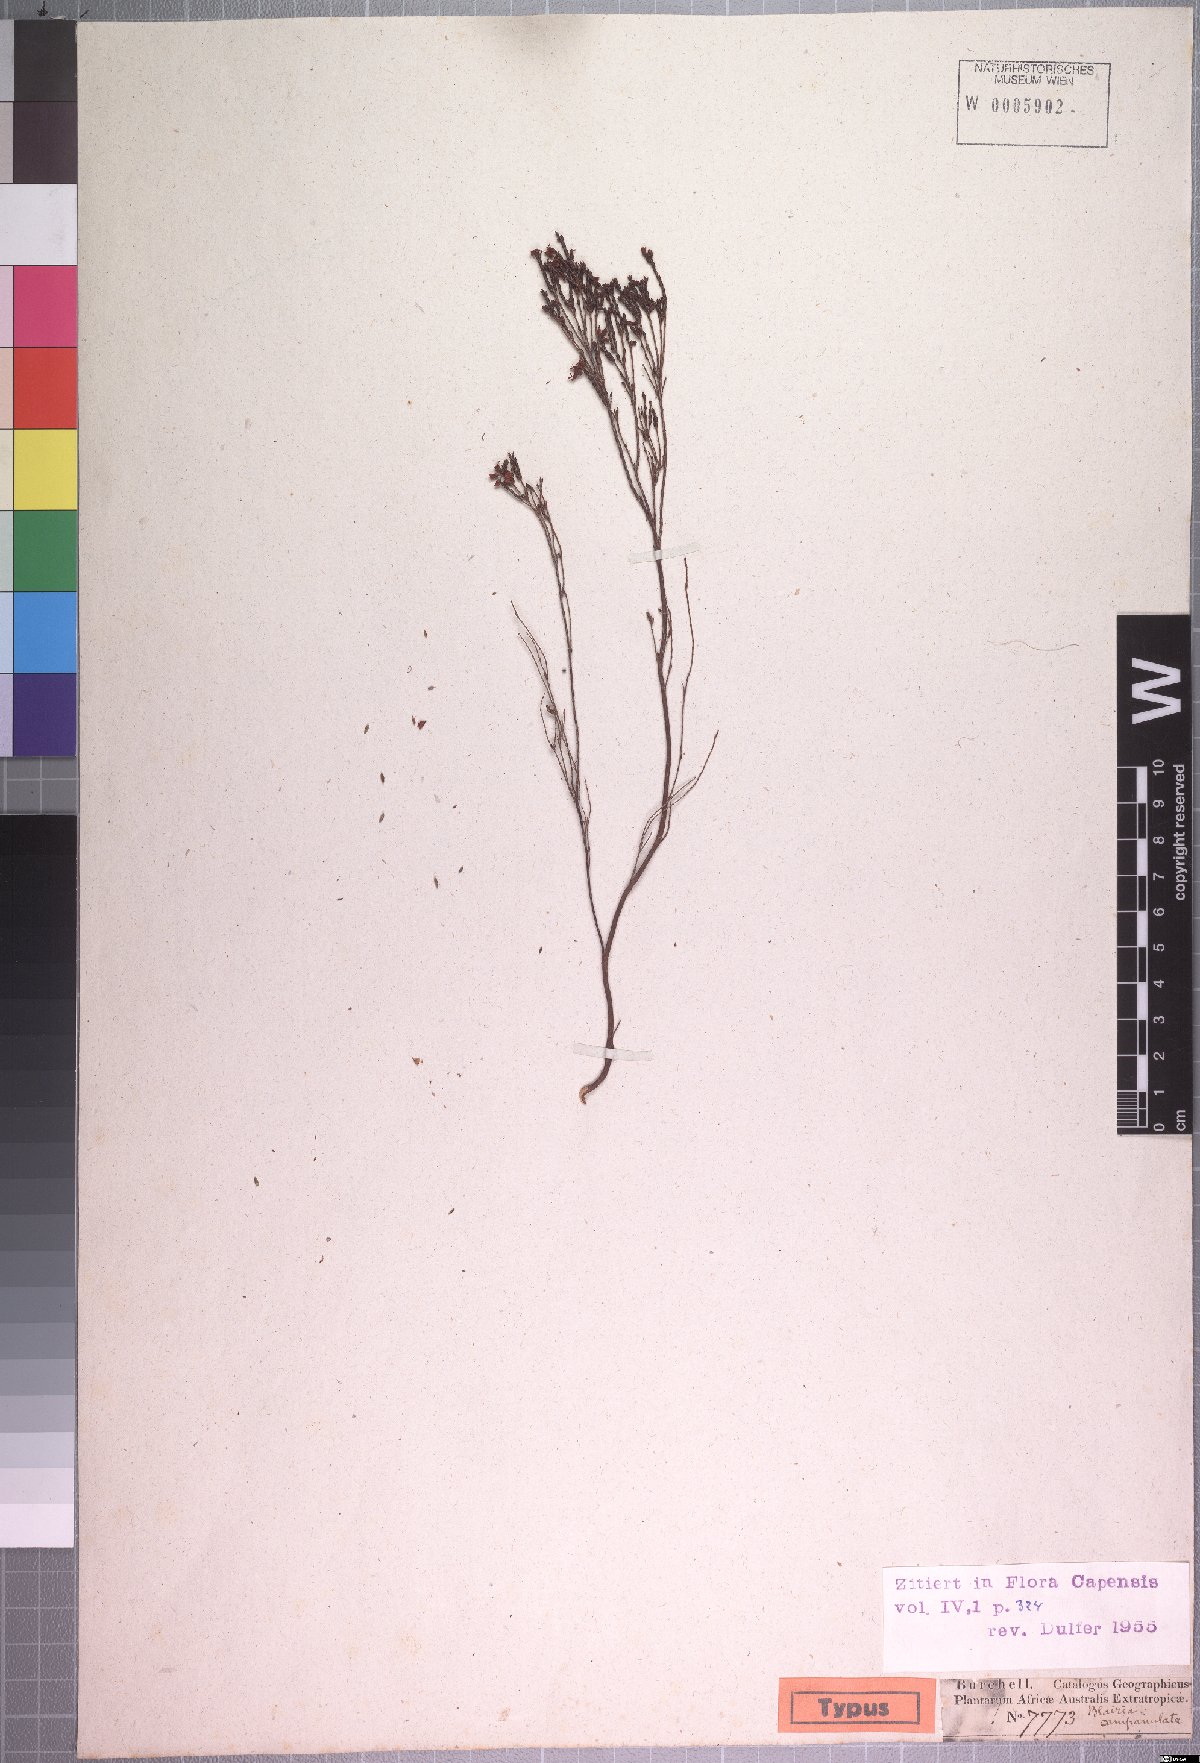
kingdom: Plantae
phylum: Tracheophyta
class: Magnoliopsida
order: Ericales
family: Ericaceae
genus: Erica
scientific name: Erica equisetifolia
